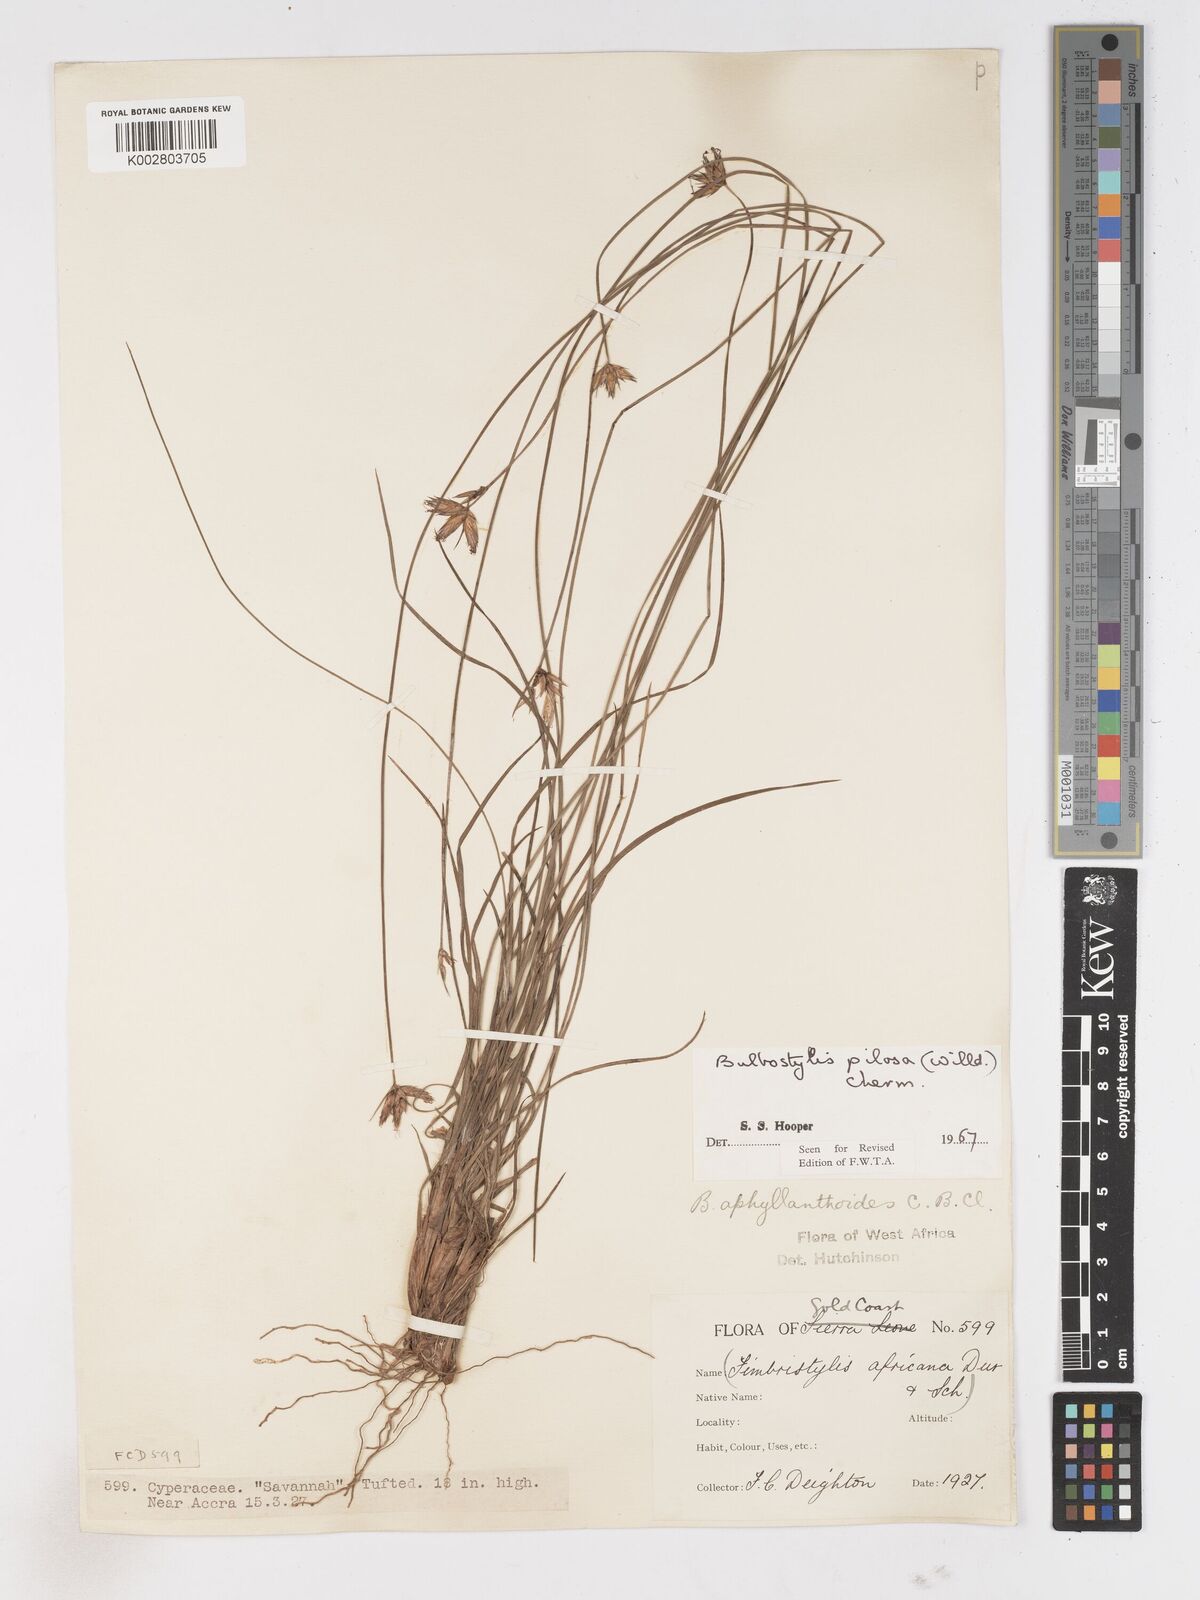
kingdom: Plantae
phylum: Tracheophyta
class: Liliopsida
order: Poales
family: Cyperaceae
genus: Bulbostylis
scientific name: Bulbostylis pilosa
